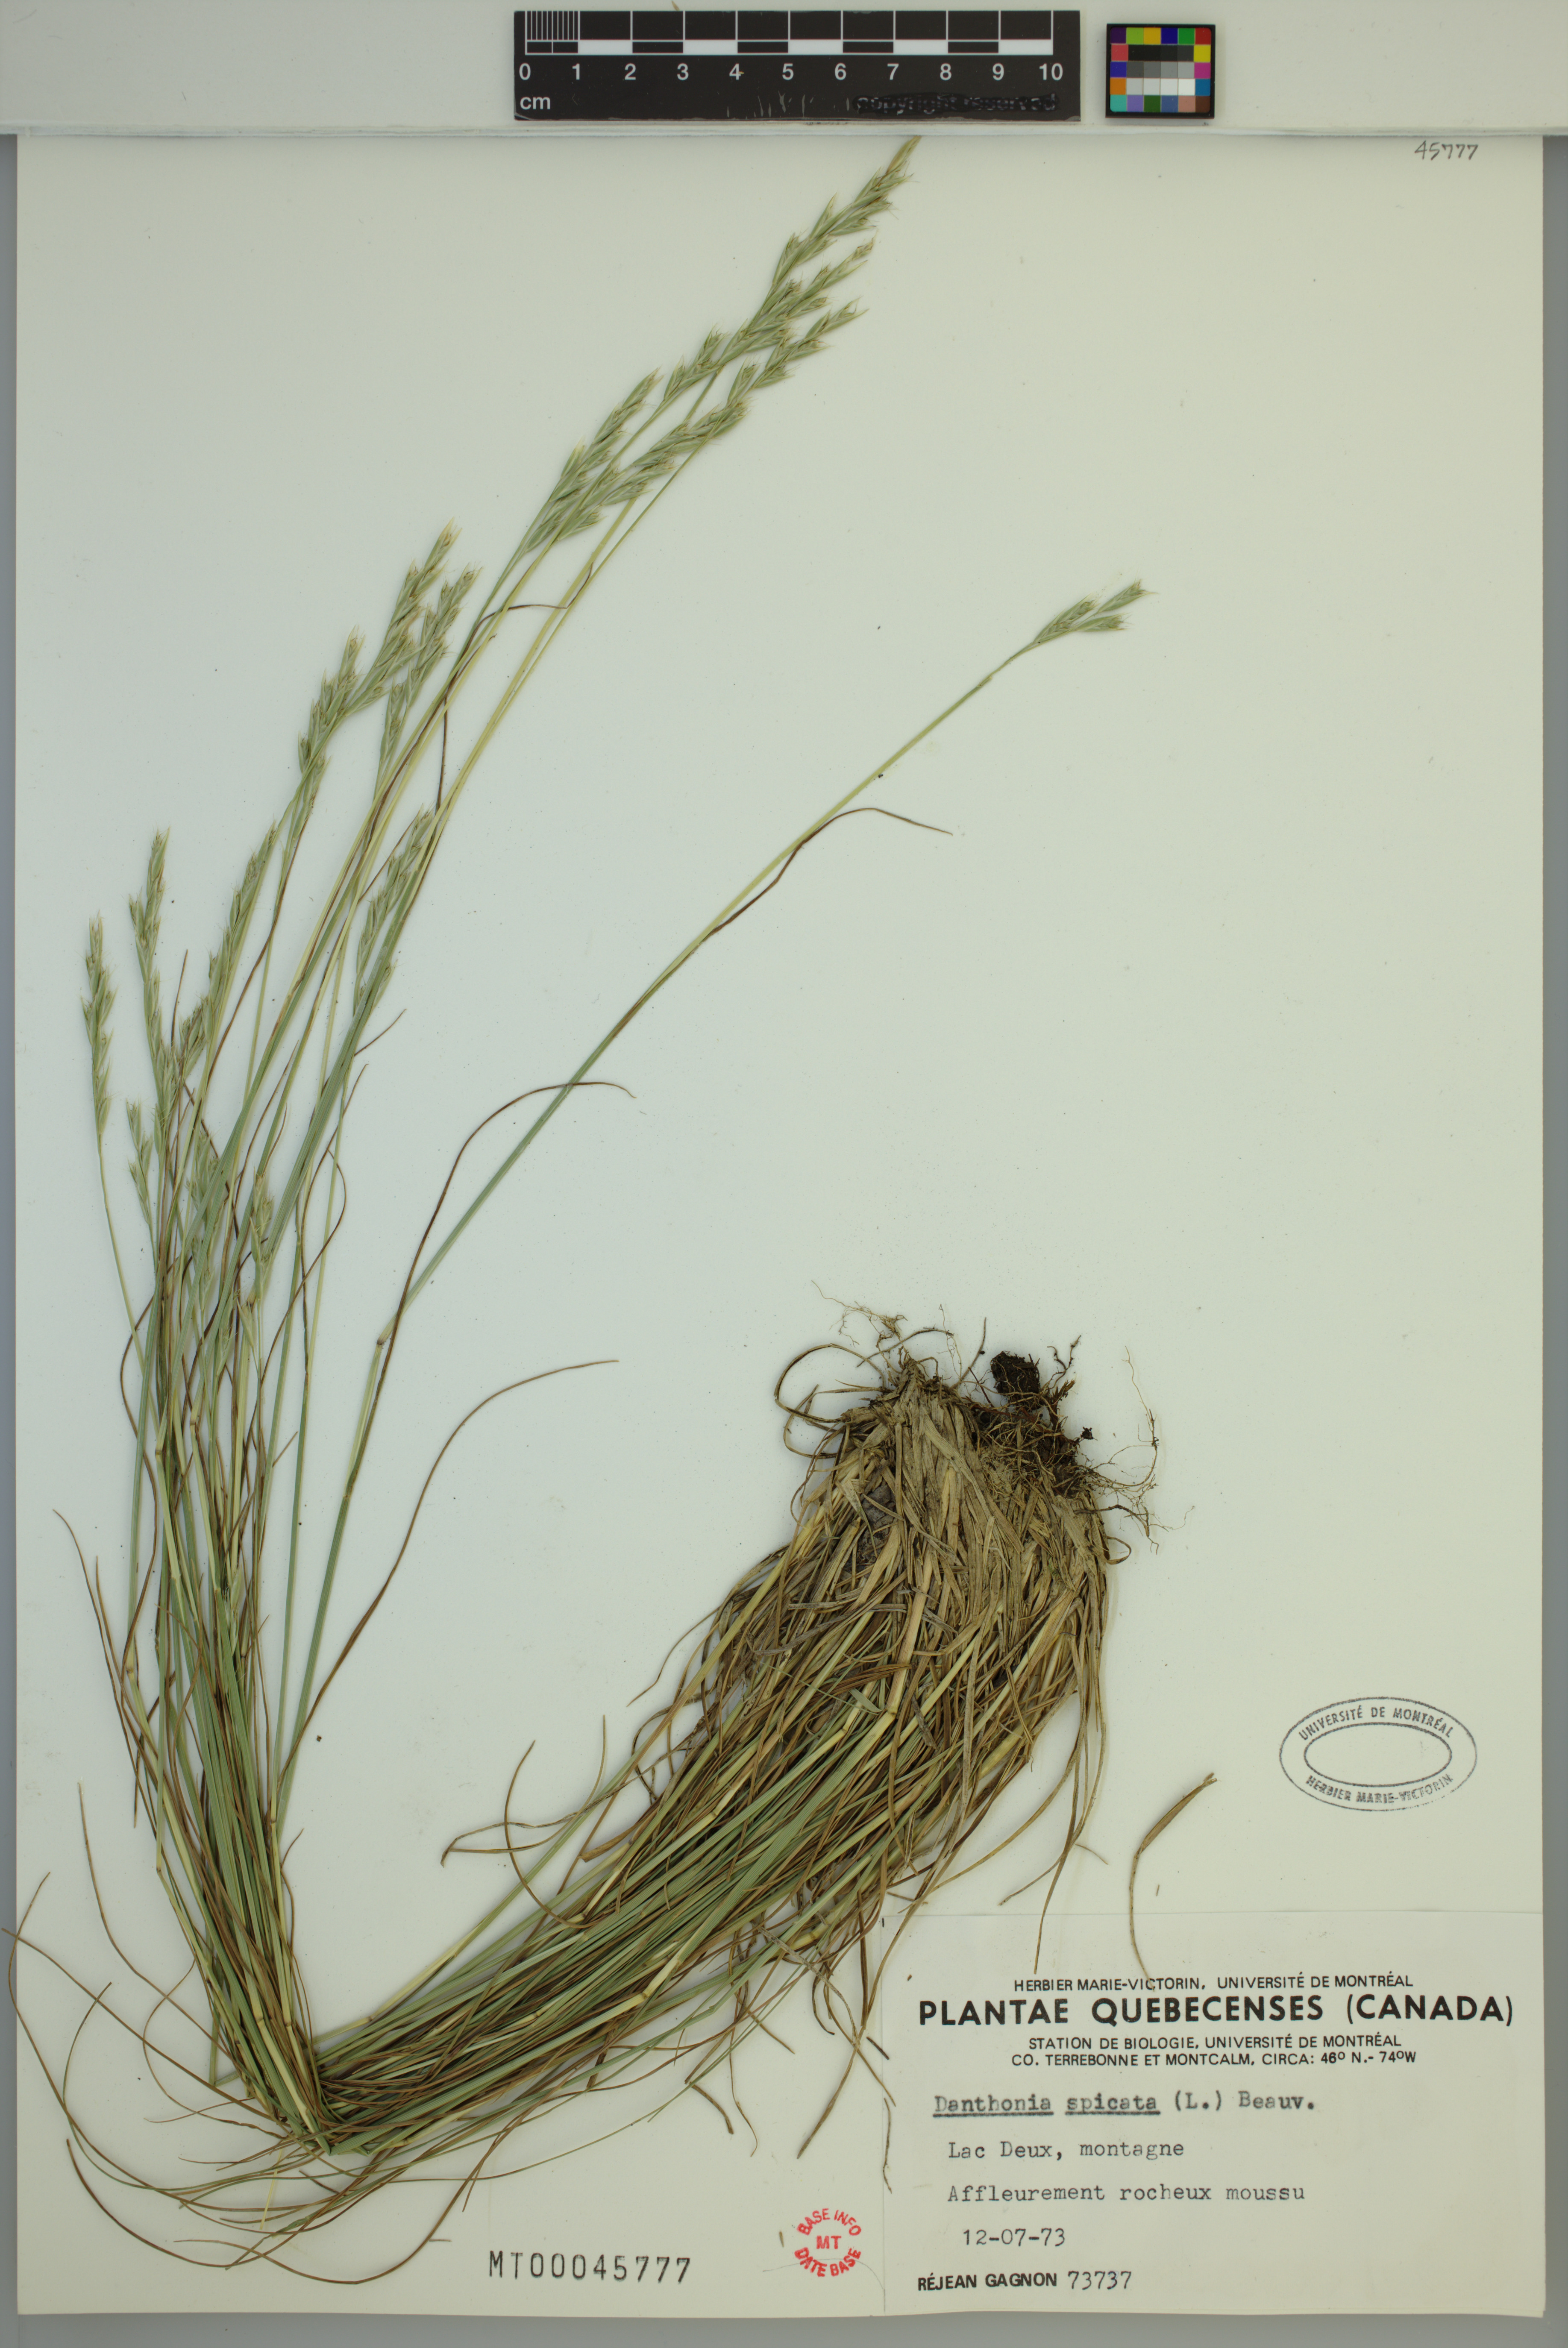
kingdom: Plantae
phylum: Tracheophyta
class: Liliopsida
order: Poales
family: Poaceae
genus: Danthonia
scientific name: Danthonia spicata
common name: Common wild oatgrass
